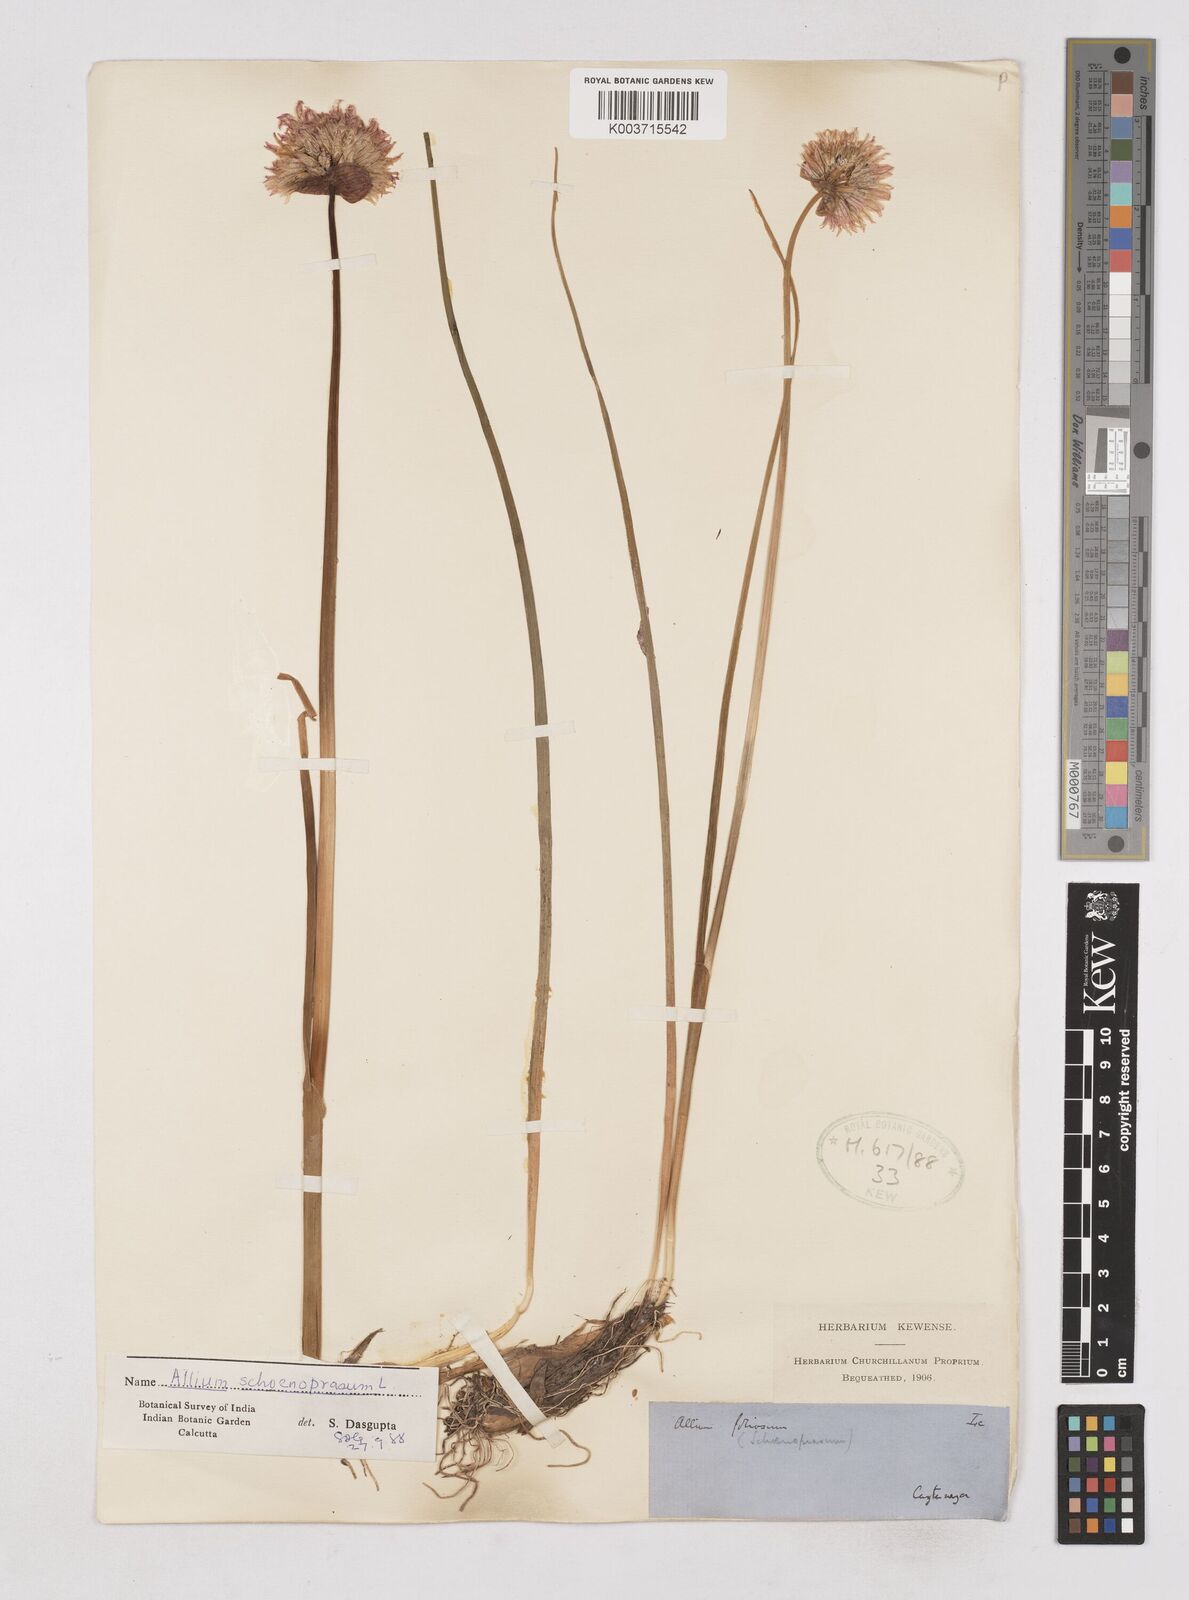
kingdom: Plantae
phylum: Tracheophyta
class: Liliopsida
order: Asparagales
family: Amaryllidaceae
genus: Allium
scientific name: Allium schoenoprasum
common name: Chives
